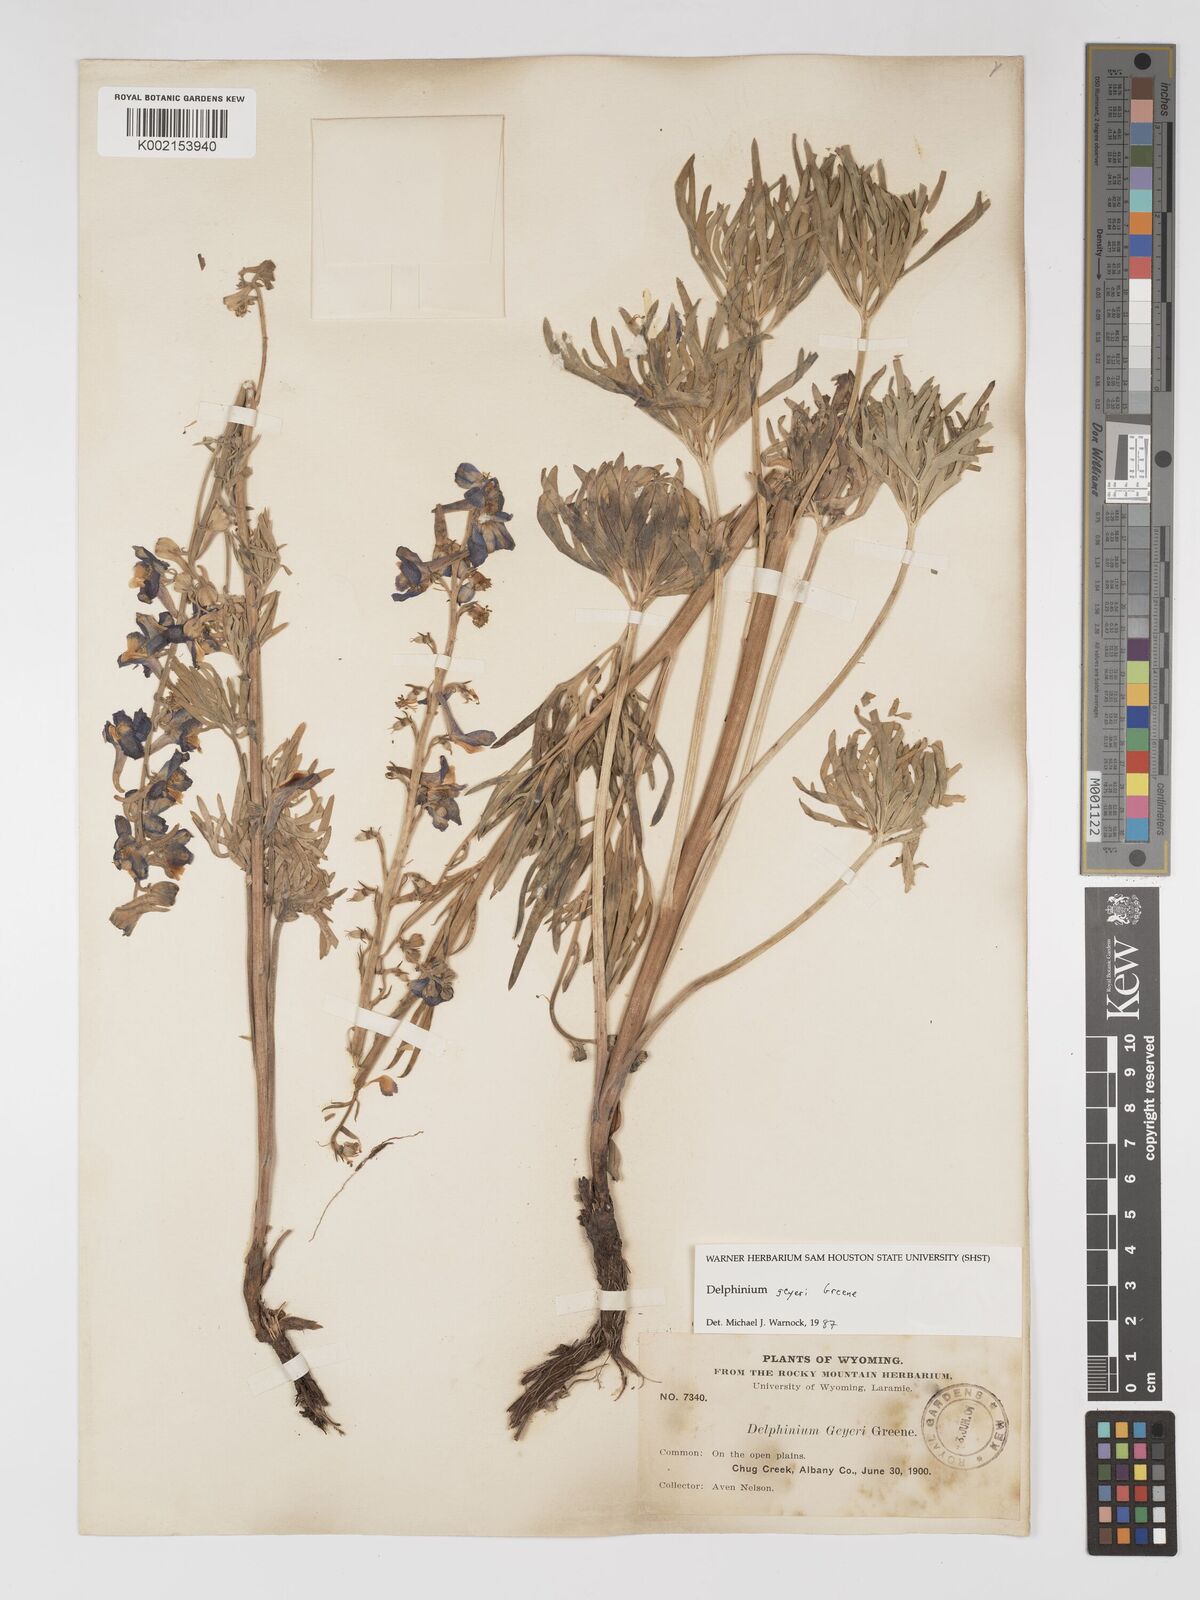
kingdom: Plantae
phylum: Tracheophyta
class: Magnoliopsida
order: Ranunculales
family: Ranunculaceae
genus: Delphinium
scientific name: Delphinium geyeri
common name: Geyer's larkspur
